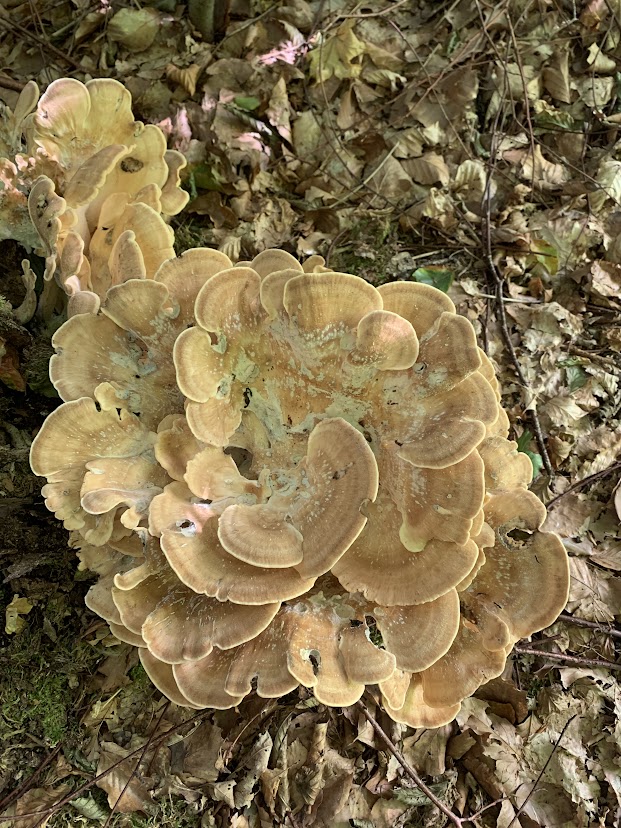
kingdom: Fungi
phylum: Basidiomycota
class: Agaricomycetes
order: Polyporales
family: Meripilaceae
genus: Meripilus
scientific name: Meripilus giganteus
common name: kæmpeporesvamp
